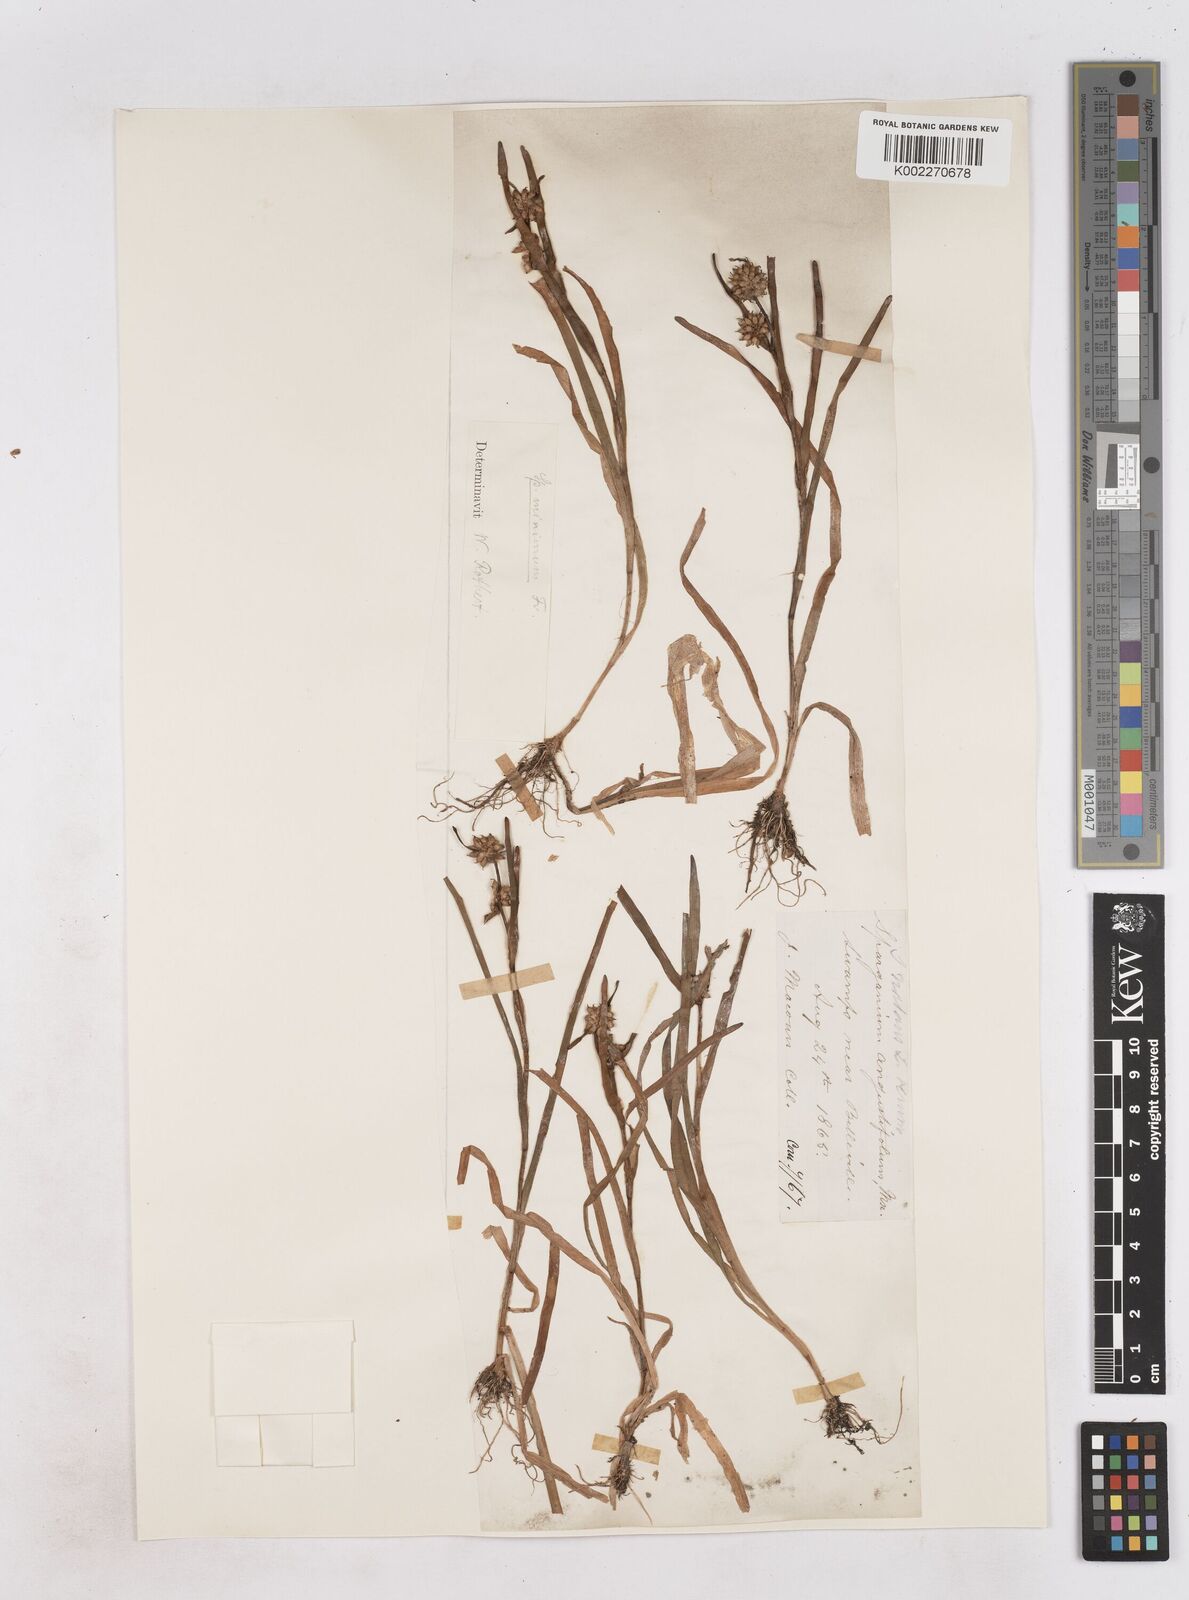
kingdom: Plantae
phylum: Tracheophyta
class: Liliopsida
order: Poales
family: Typhaceae
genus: Sparganium
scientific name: Sparganium natans
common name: Least bur-reed
